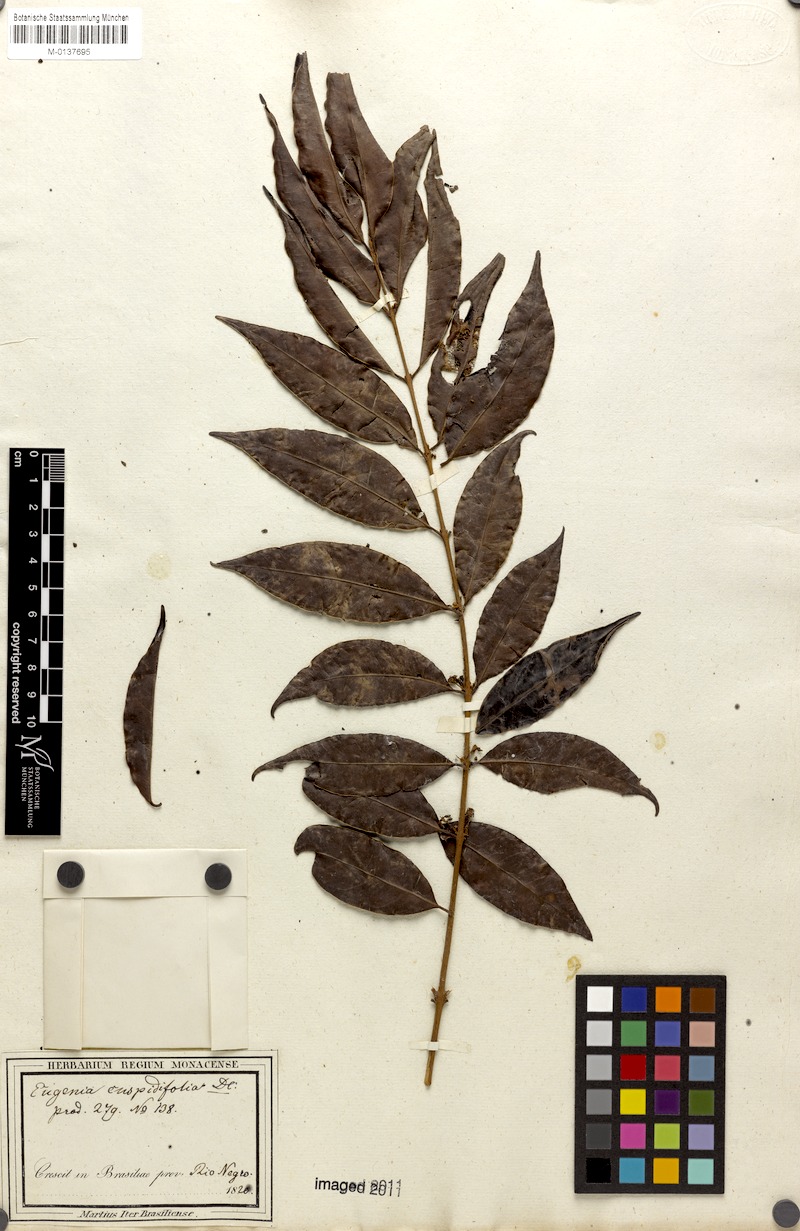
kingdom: Plantae
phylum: Tracheophyta
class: Magnoliopsida
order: Myrtales
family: Myrtaceae
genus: Eugenia
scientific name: Eugenia cuspidifolia
